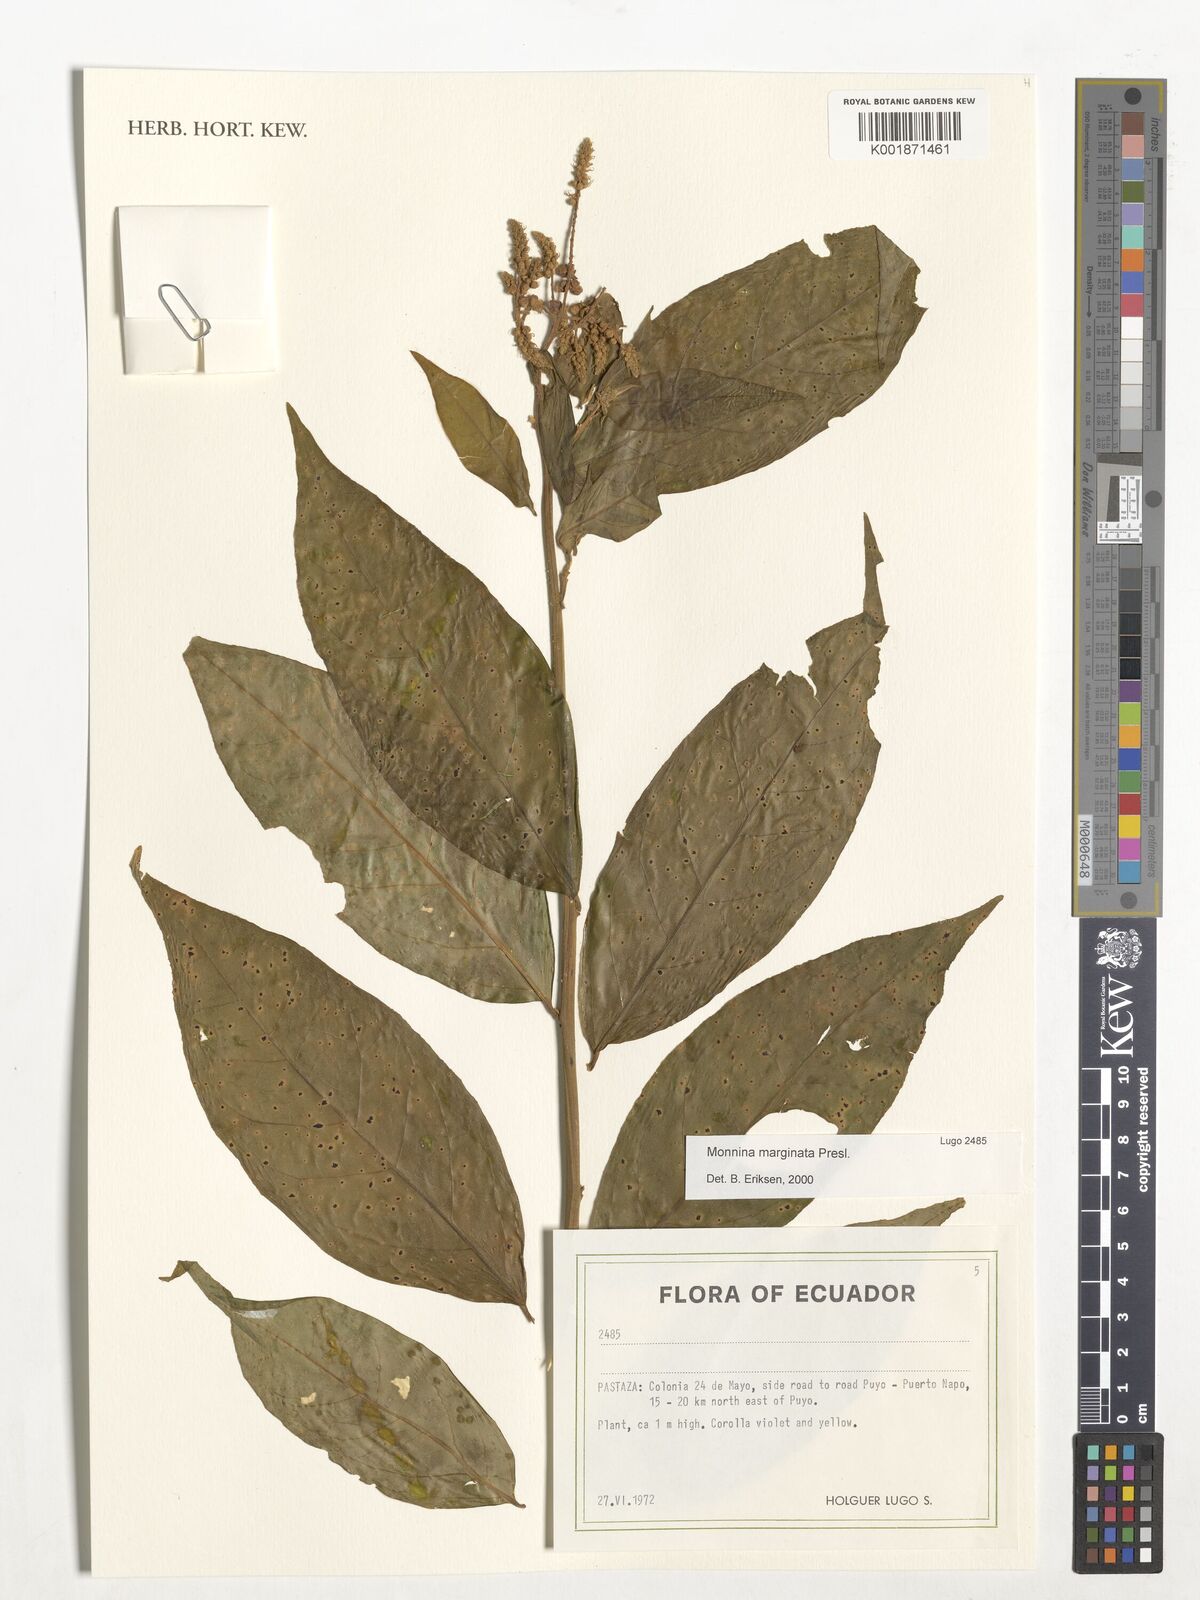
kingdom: Plantae
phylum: Tracheophyta
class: Magnoliopsida
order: Fabales
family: Polygalaceae
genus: Monnina
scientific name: Monnina marginata
